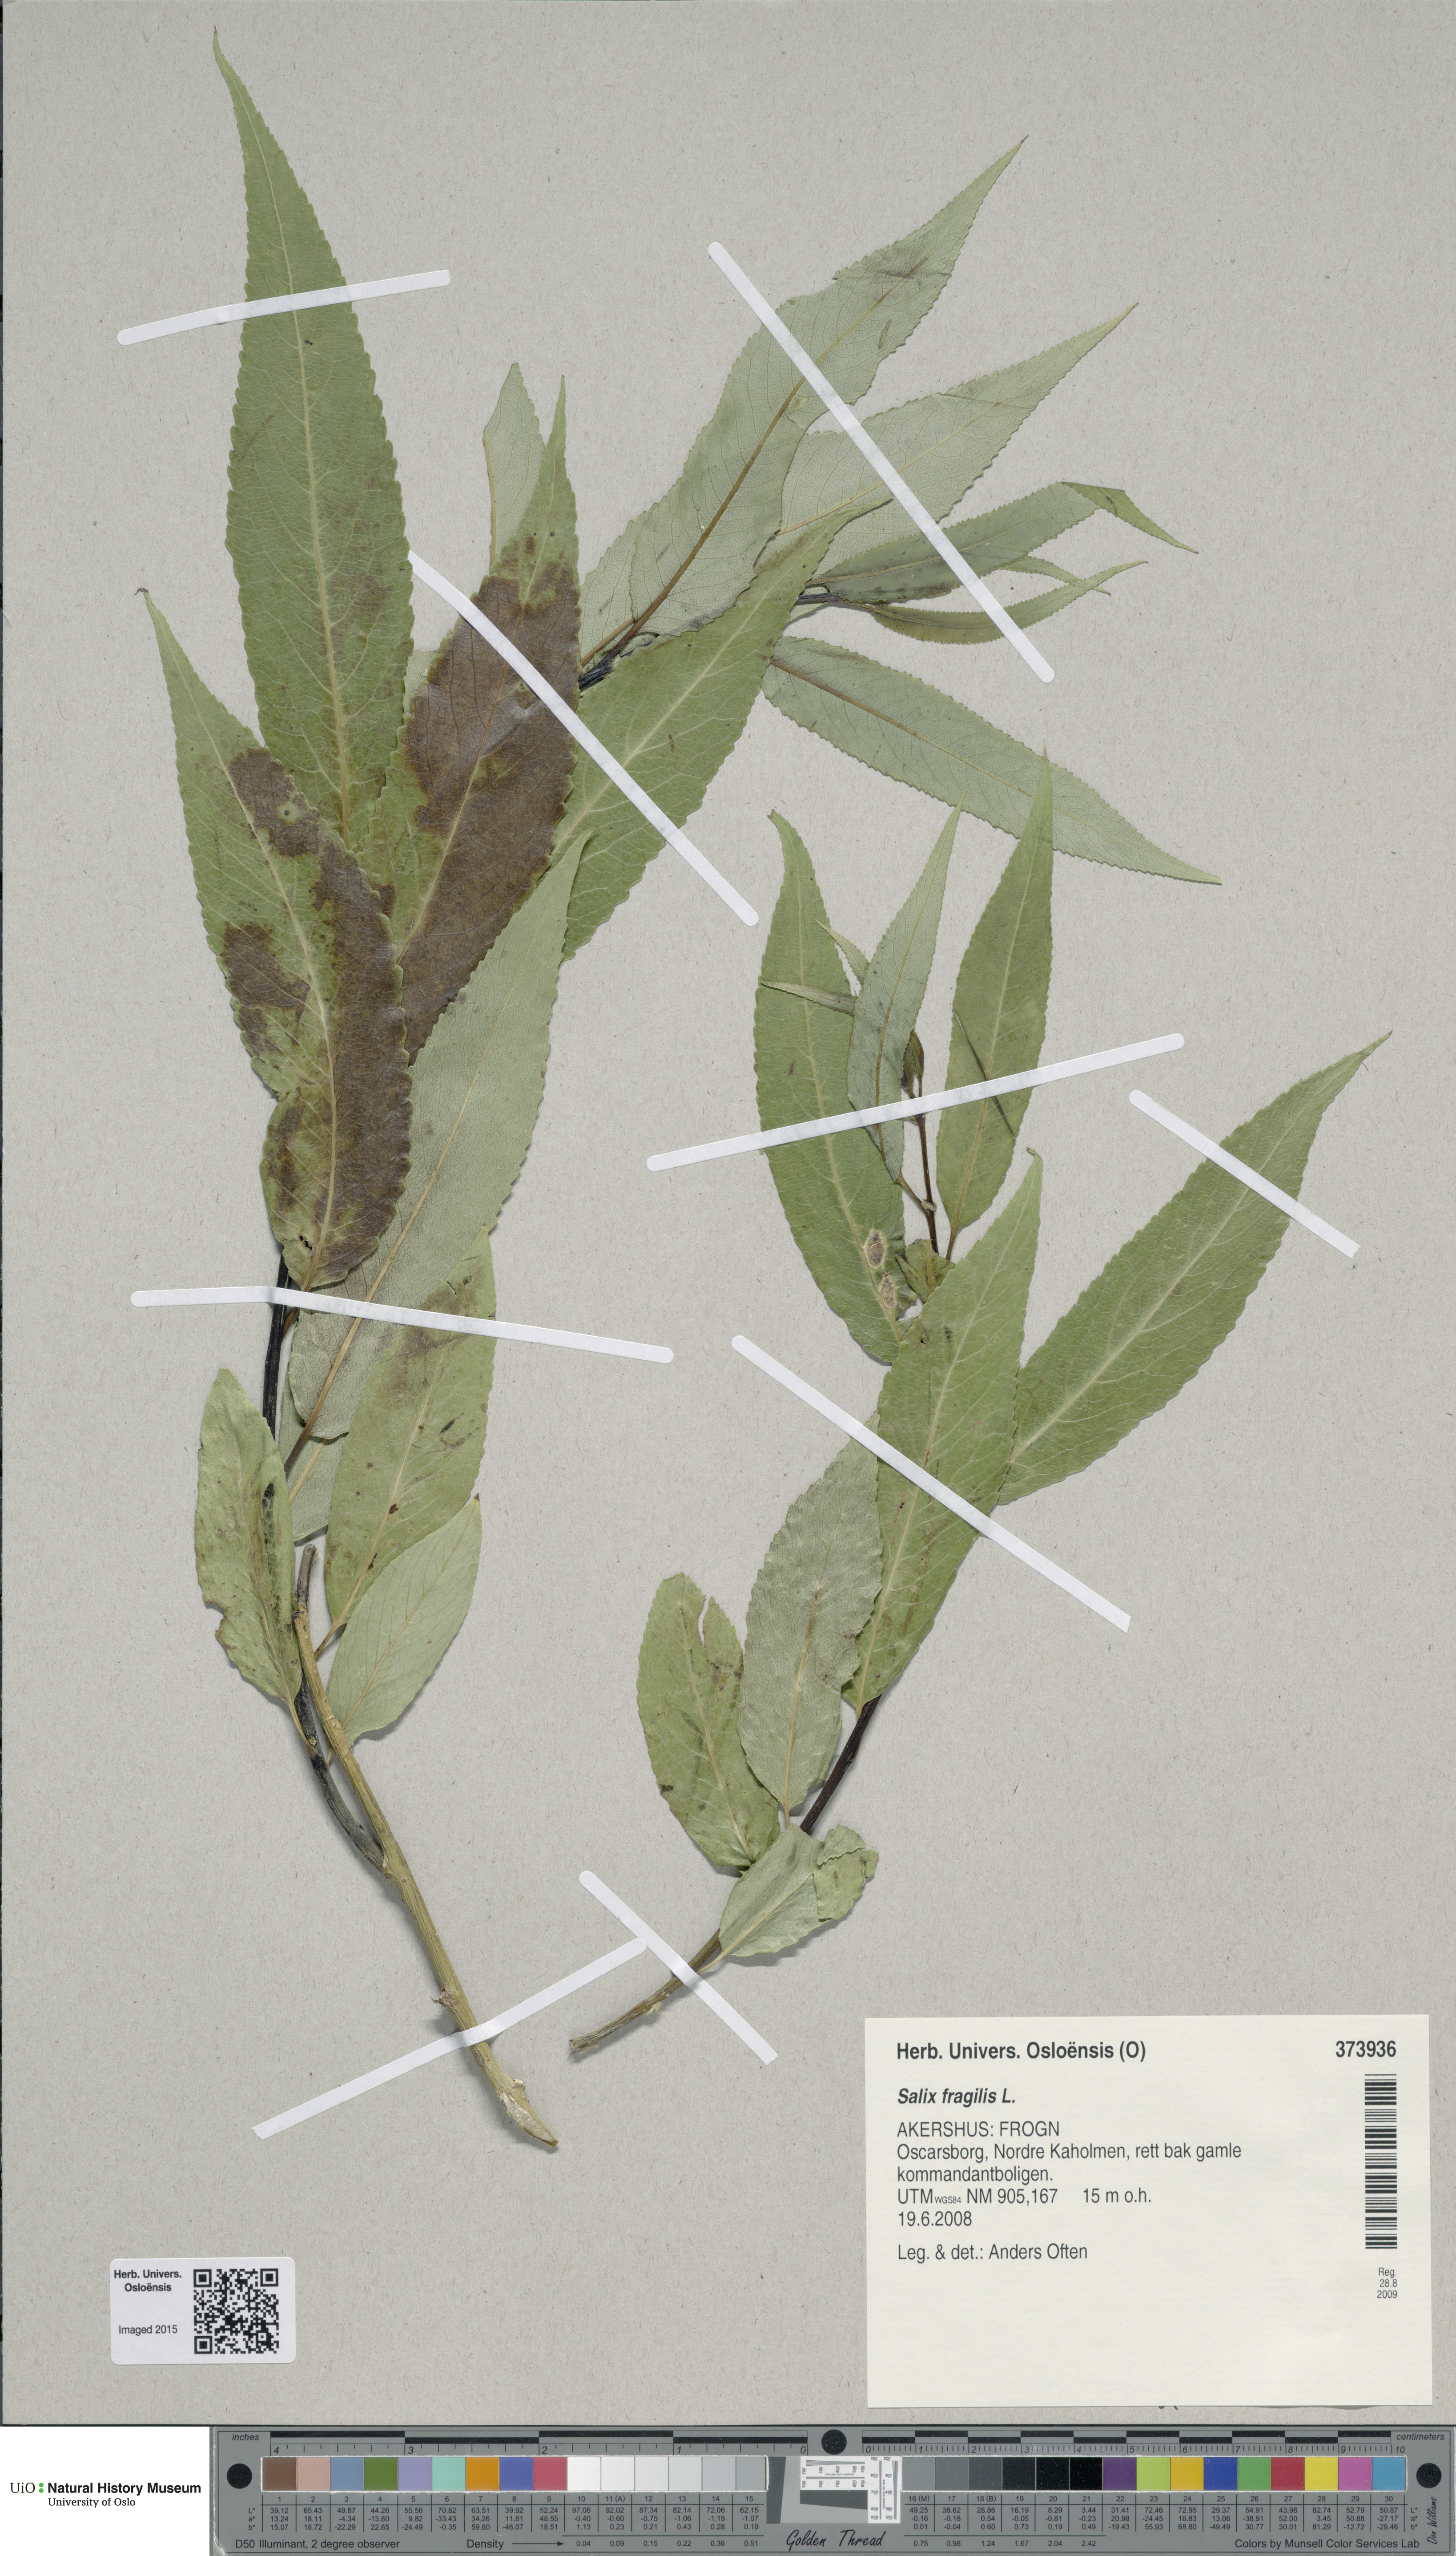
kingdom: Plantae
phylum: Tracheophyta
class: Magnoliopsida
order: Malpighiales
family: Salicaceae
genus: Salix
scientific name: Salix alba
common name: White willow
